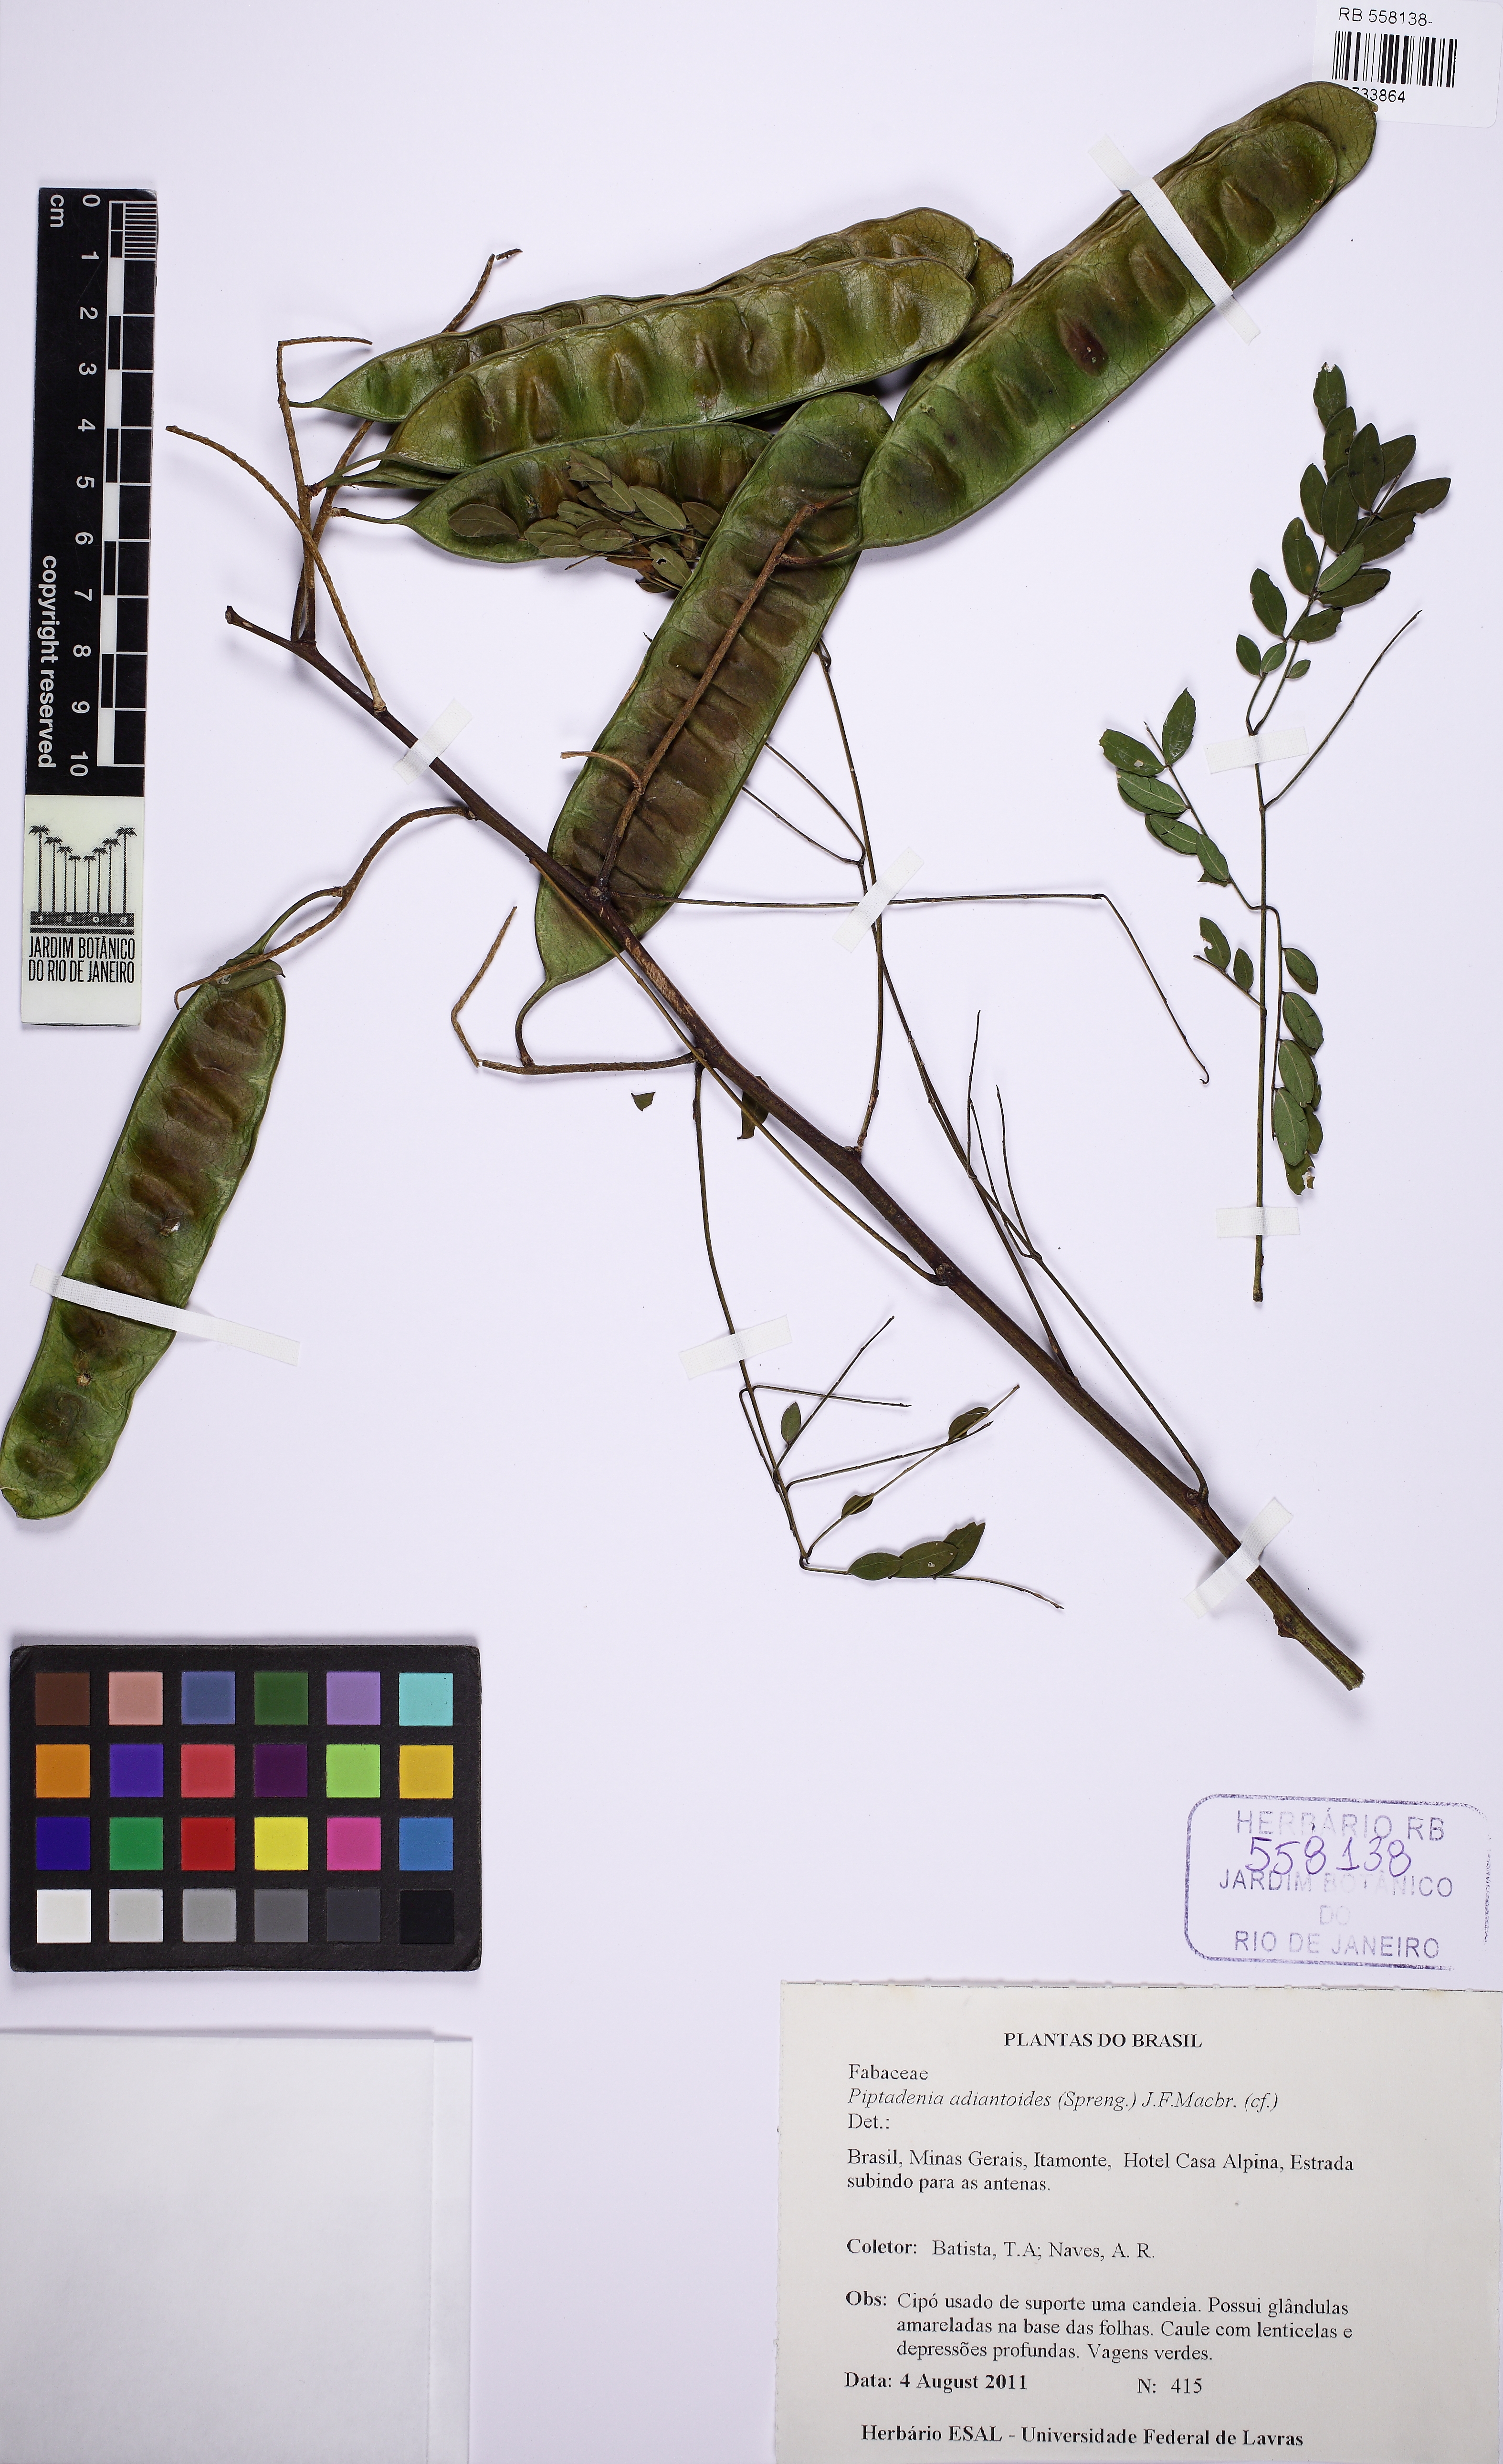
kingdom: Plantae
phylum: Tracheophyta
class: Magnoliopsida
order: Fabales
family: Fabaceae
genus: Piptadenia
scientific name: Piptadenia adiantoides
